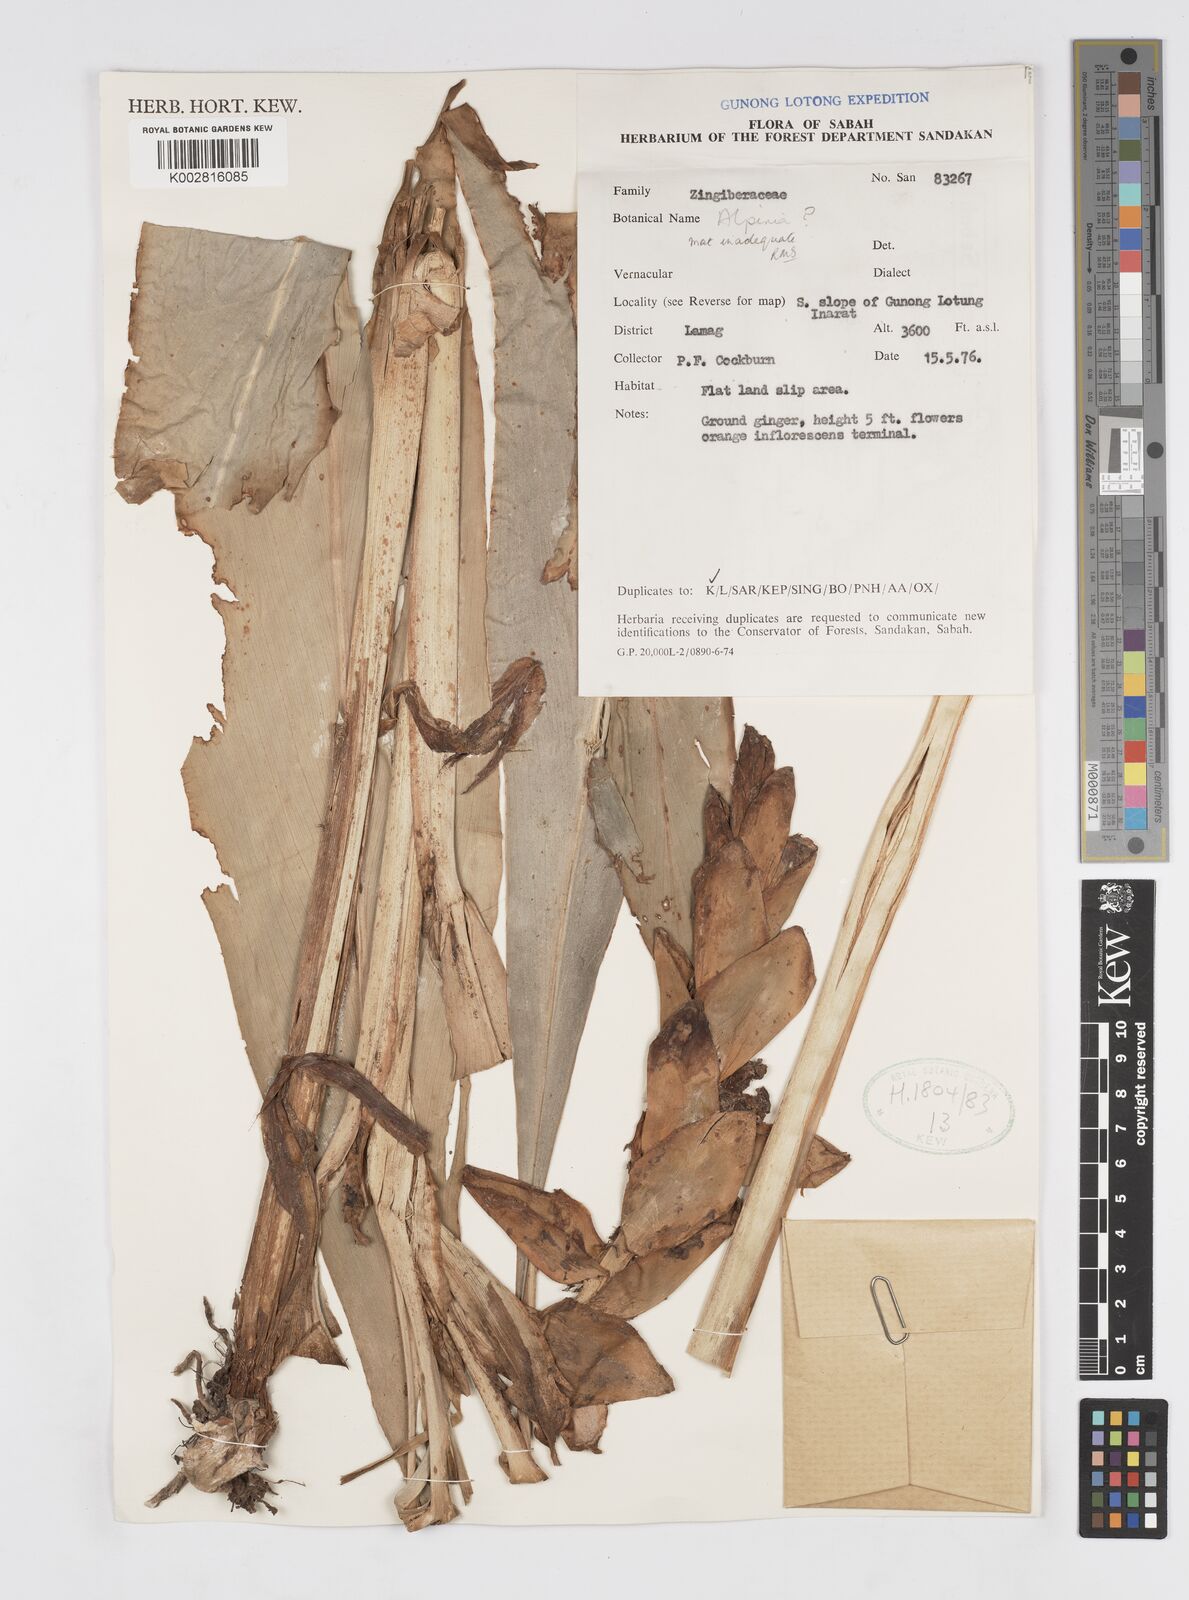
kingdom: Plantae
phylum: Tracheophyta
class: Liliopsida
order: Zingiberales
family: Zingiberaceae
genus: Alpinia
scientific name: Alpinia
